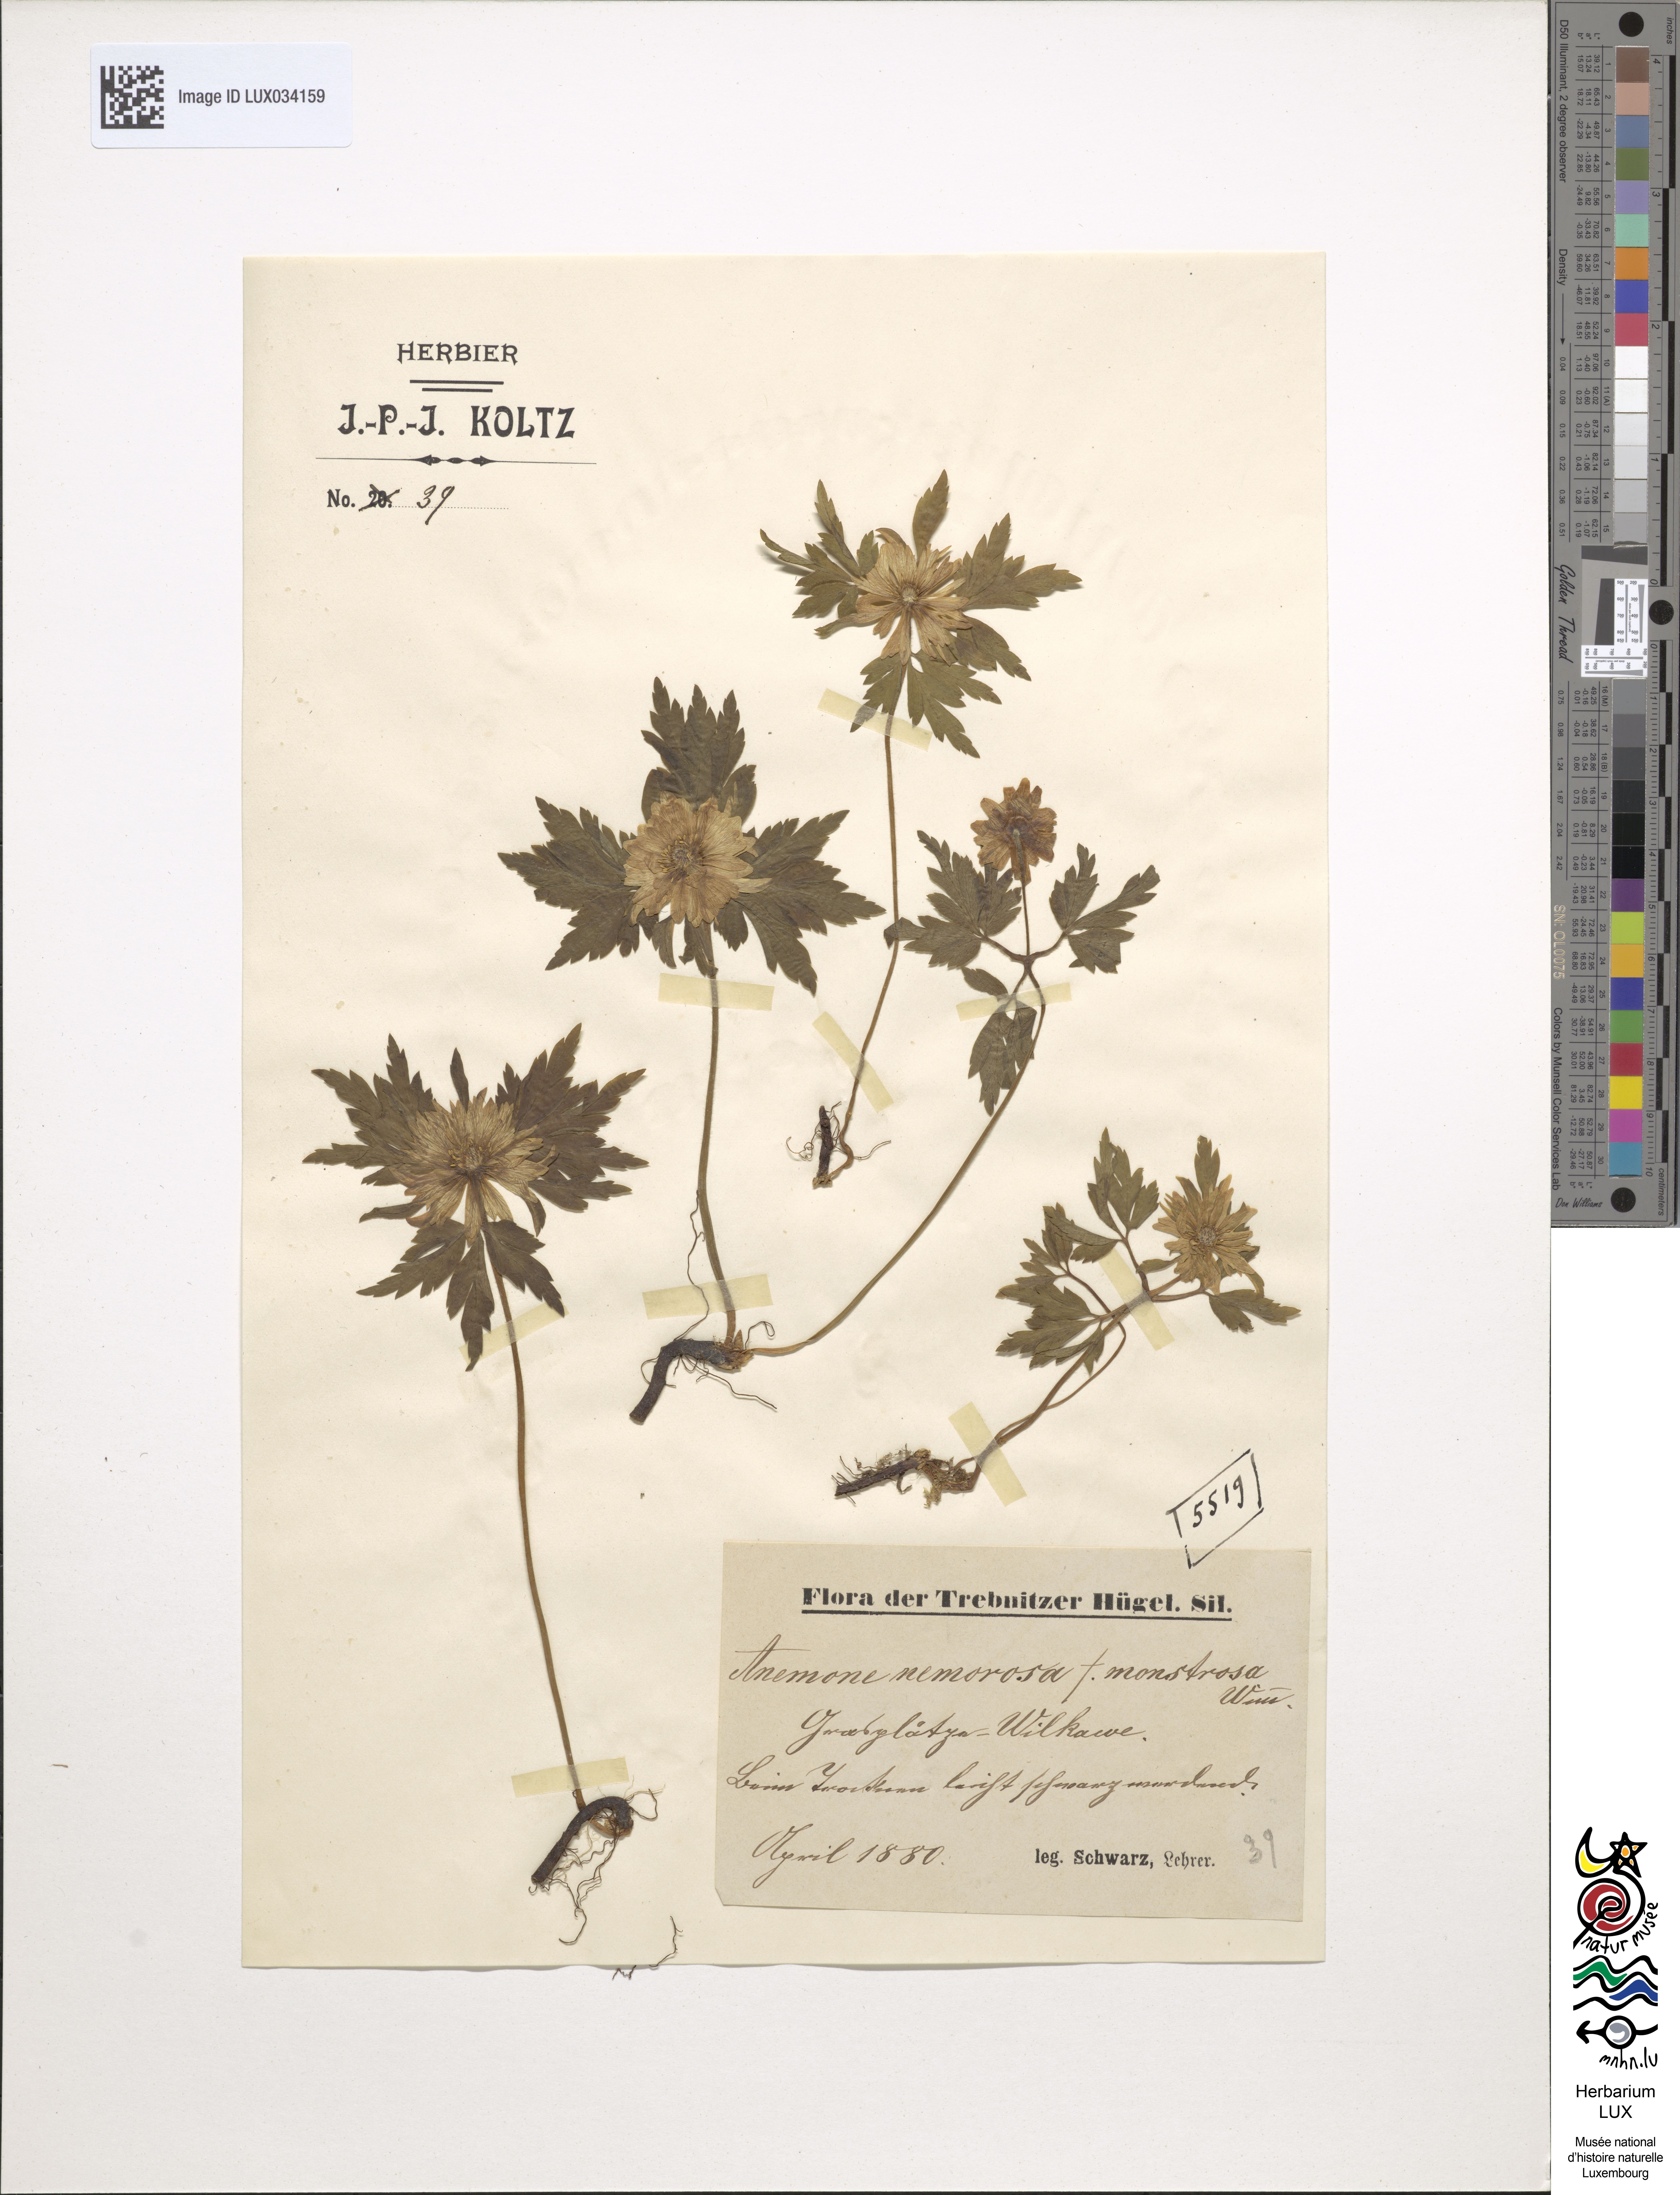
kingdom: Plantae
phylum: Tracheophyta
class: Magnoliopsida
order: Ranunculales
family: Ranunculaceae
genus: Anemone
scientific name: Anemone nemorosa
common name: Wood anemone
